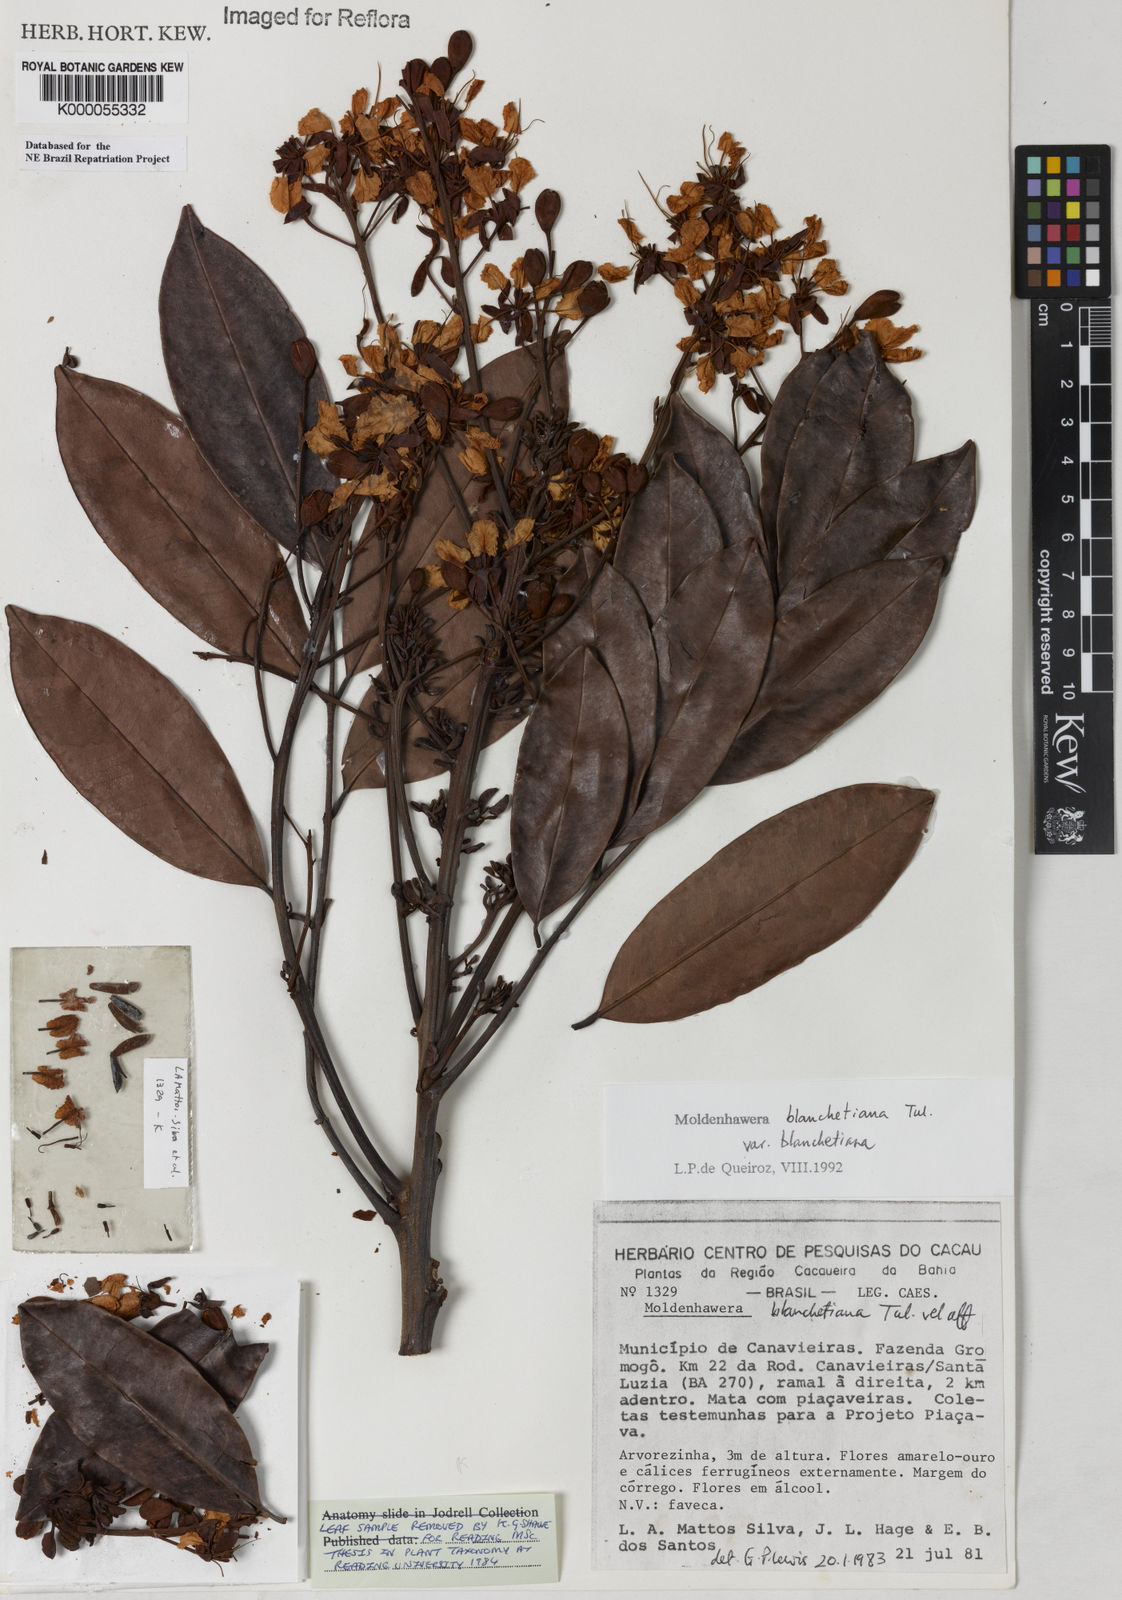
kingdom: Plantae
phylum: Tracheophyta
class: Magnoliopsida
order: Fabales
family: Fabaceae
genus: Moldenhawera
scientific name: Moldenhawera blanchetiana
